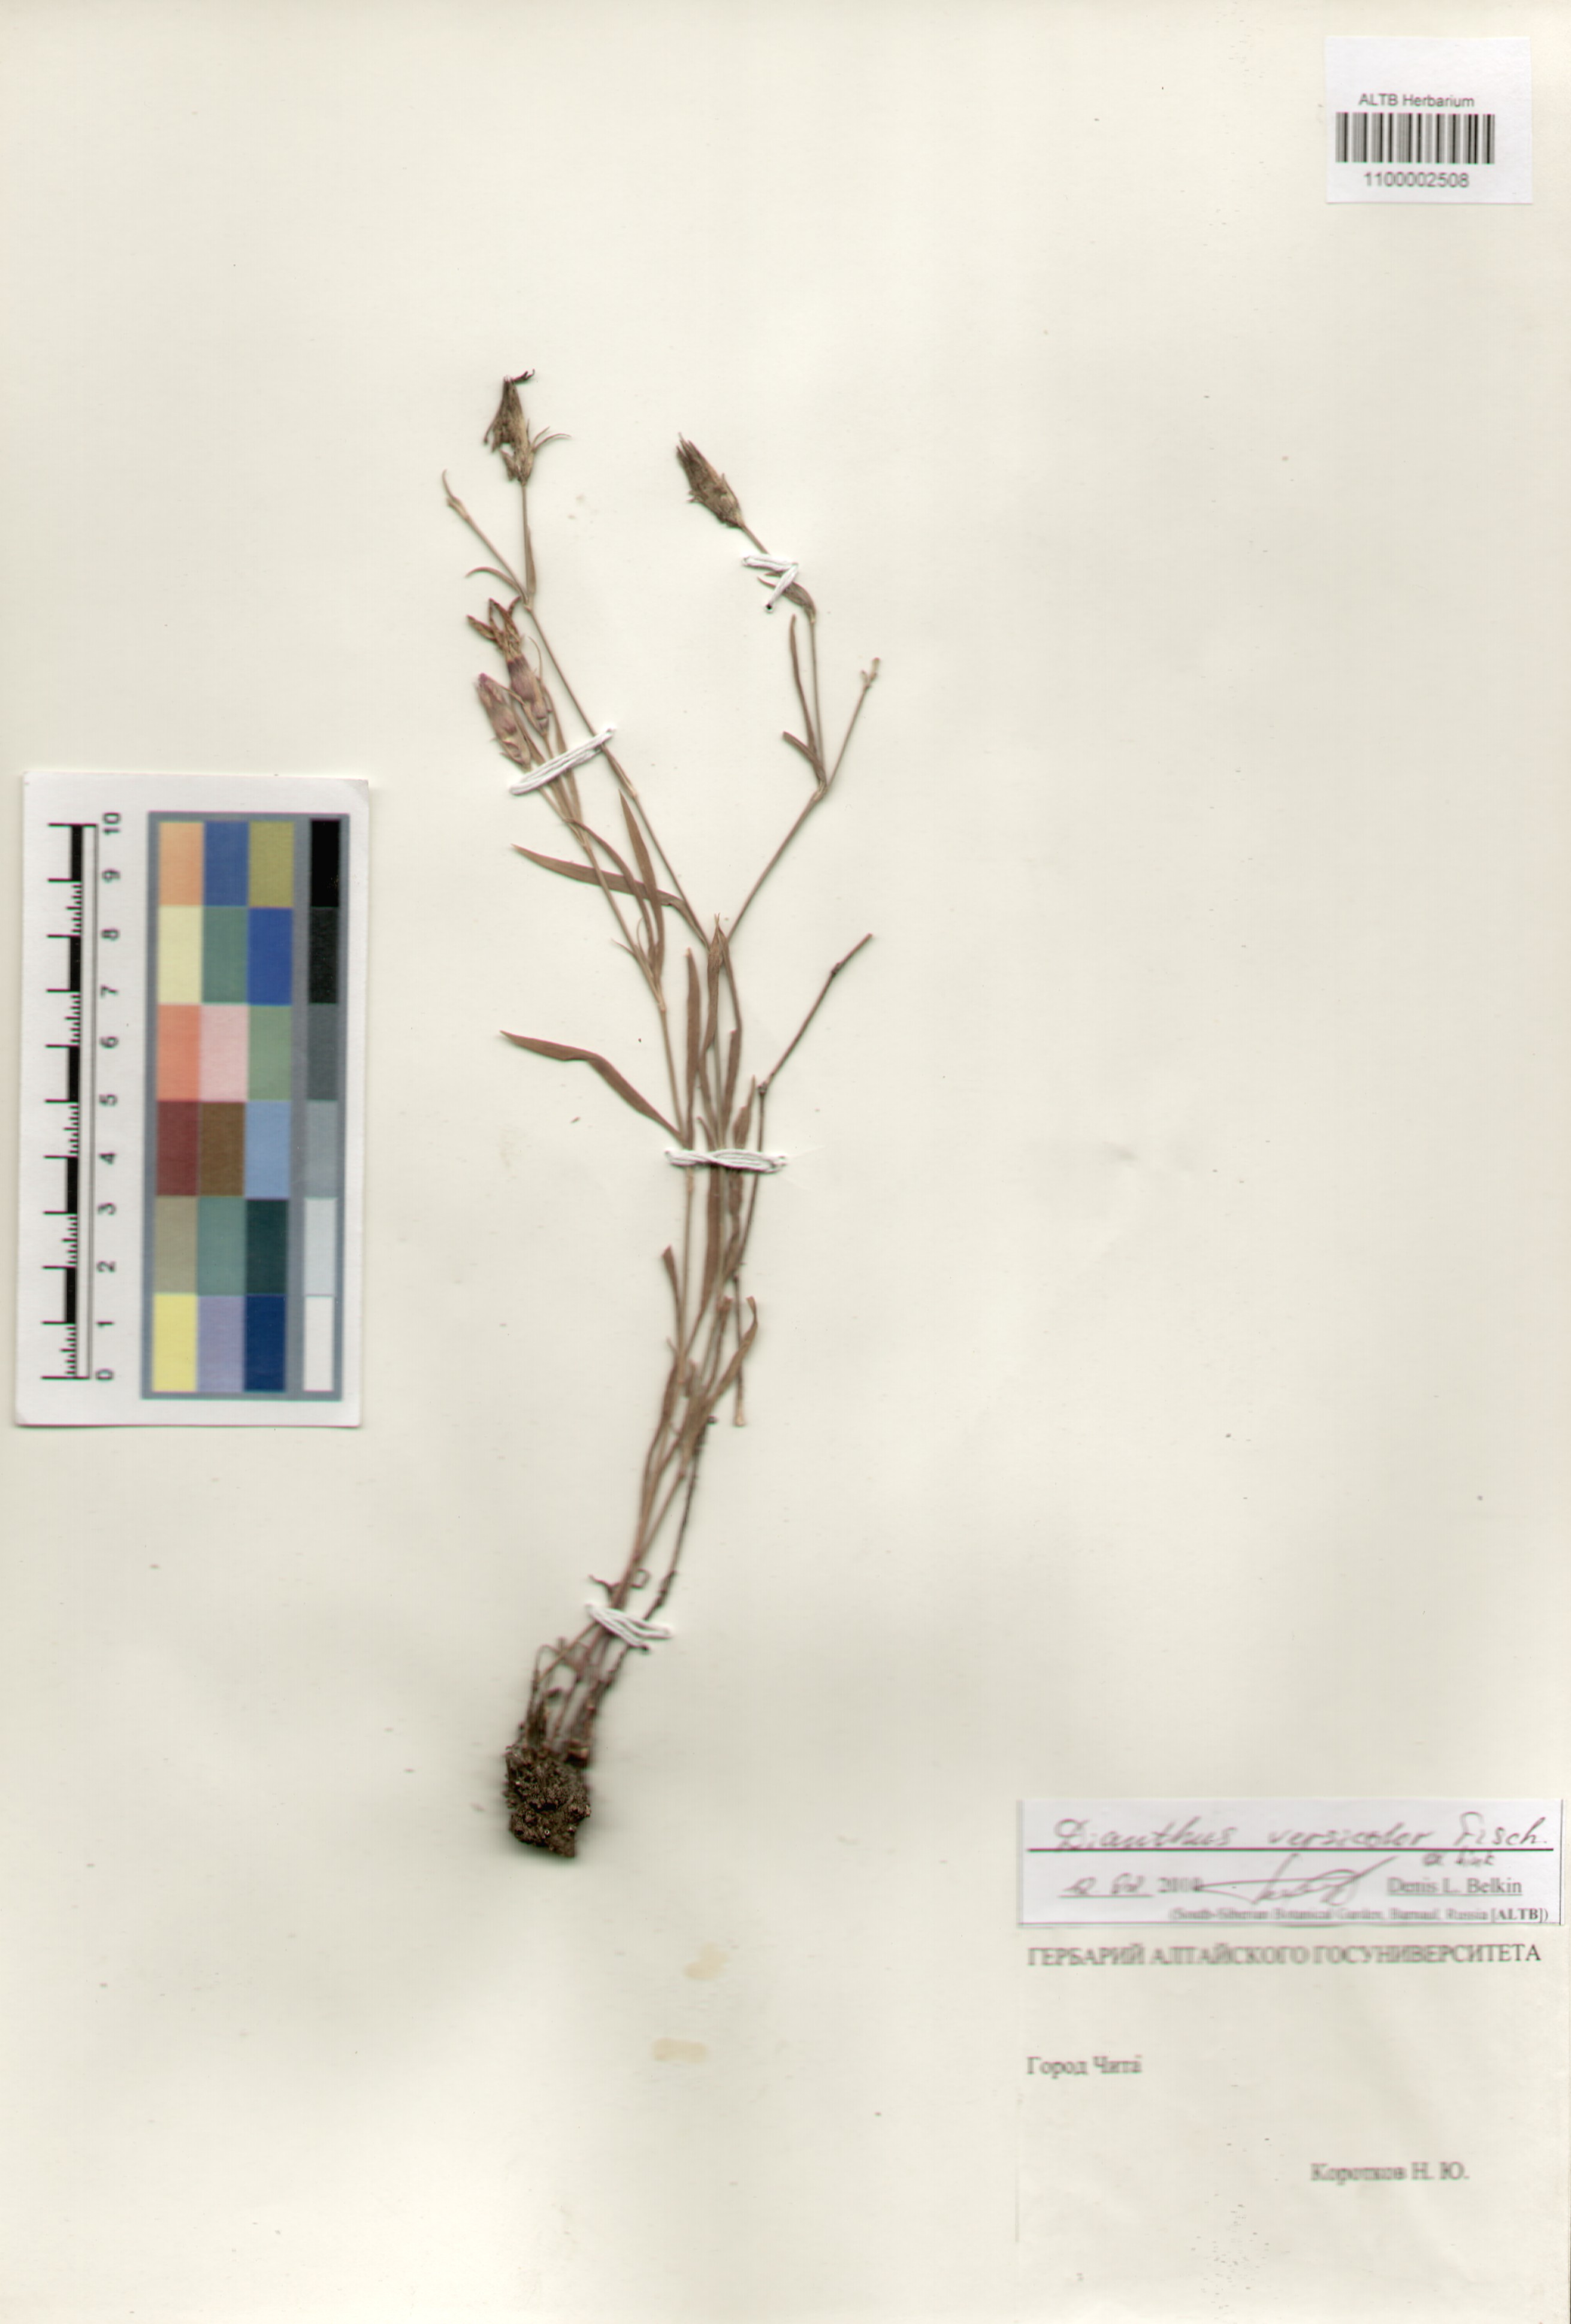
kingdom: Plantae
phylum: Tracheophyta
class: Magnoliopsida
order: Caryophyllales
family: Caryophyllaceae
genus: Dianthus
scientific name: Dianthus chinensis
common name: Rainbow pink
